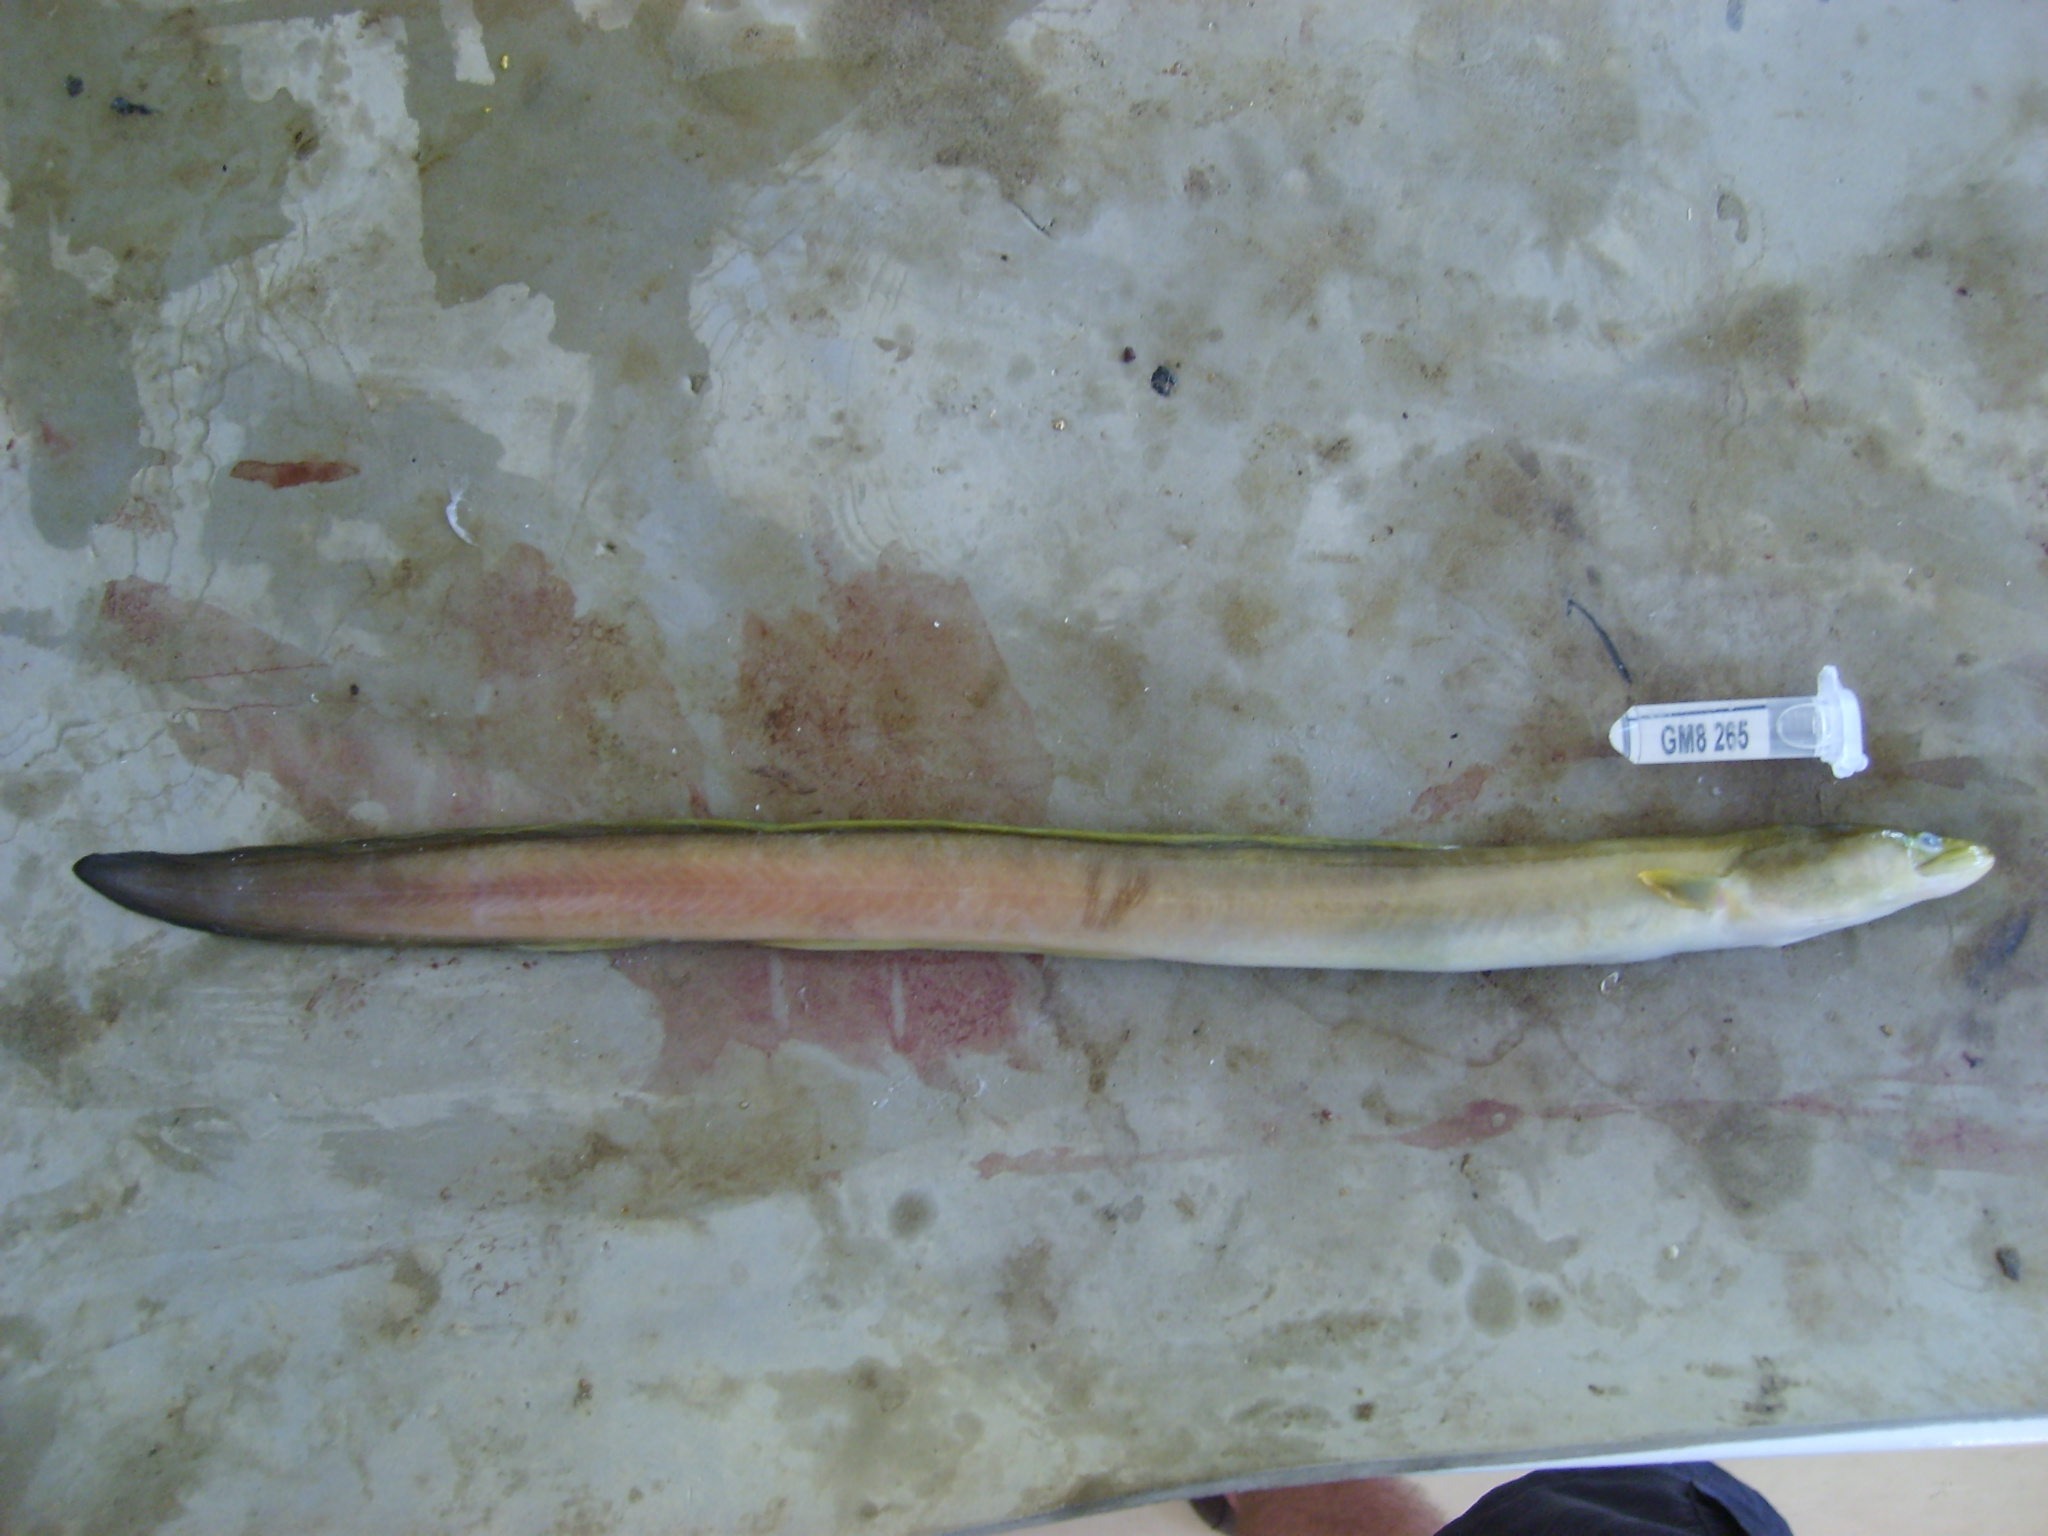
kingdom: Animalia
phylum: Chordata
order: Anguilliformes
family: Anguillidae
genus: Anguilla
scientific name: Anguilla mossambica
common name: African longfin eel
